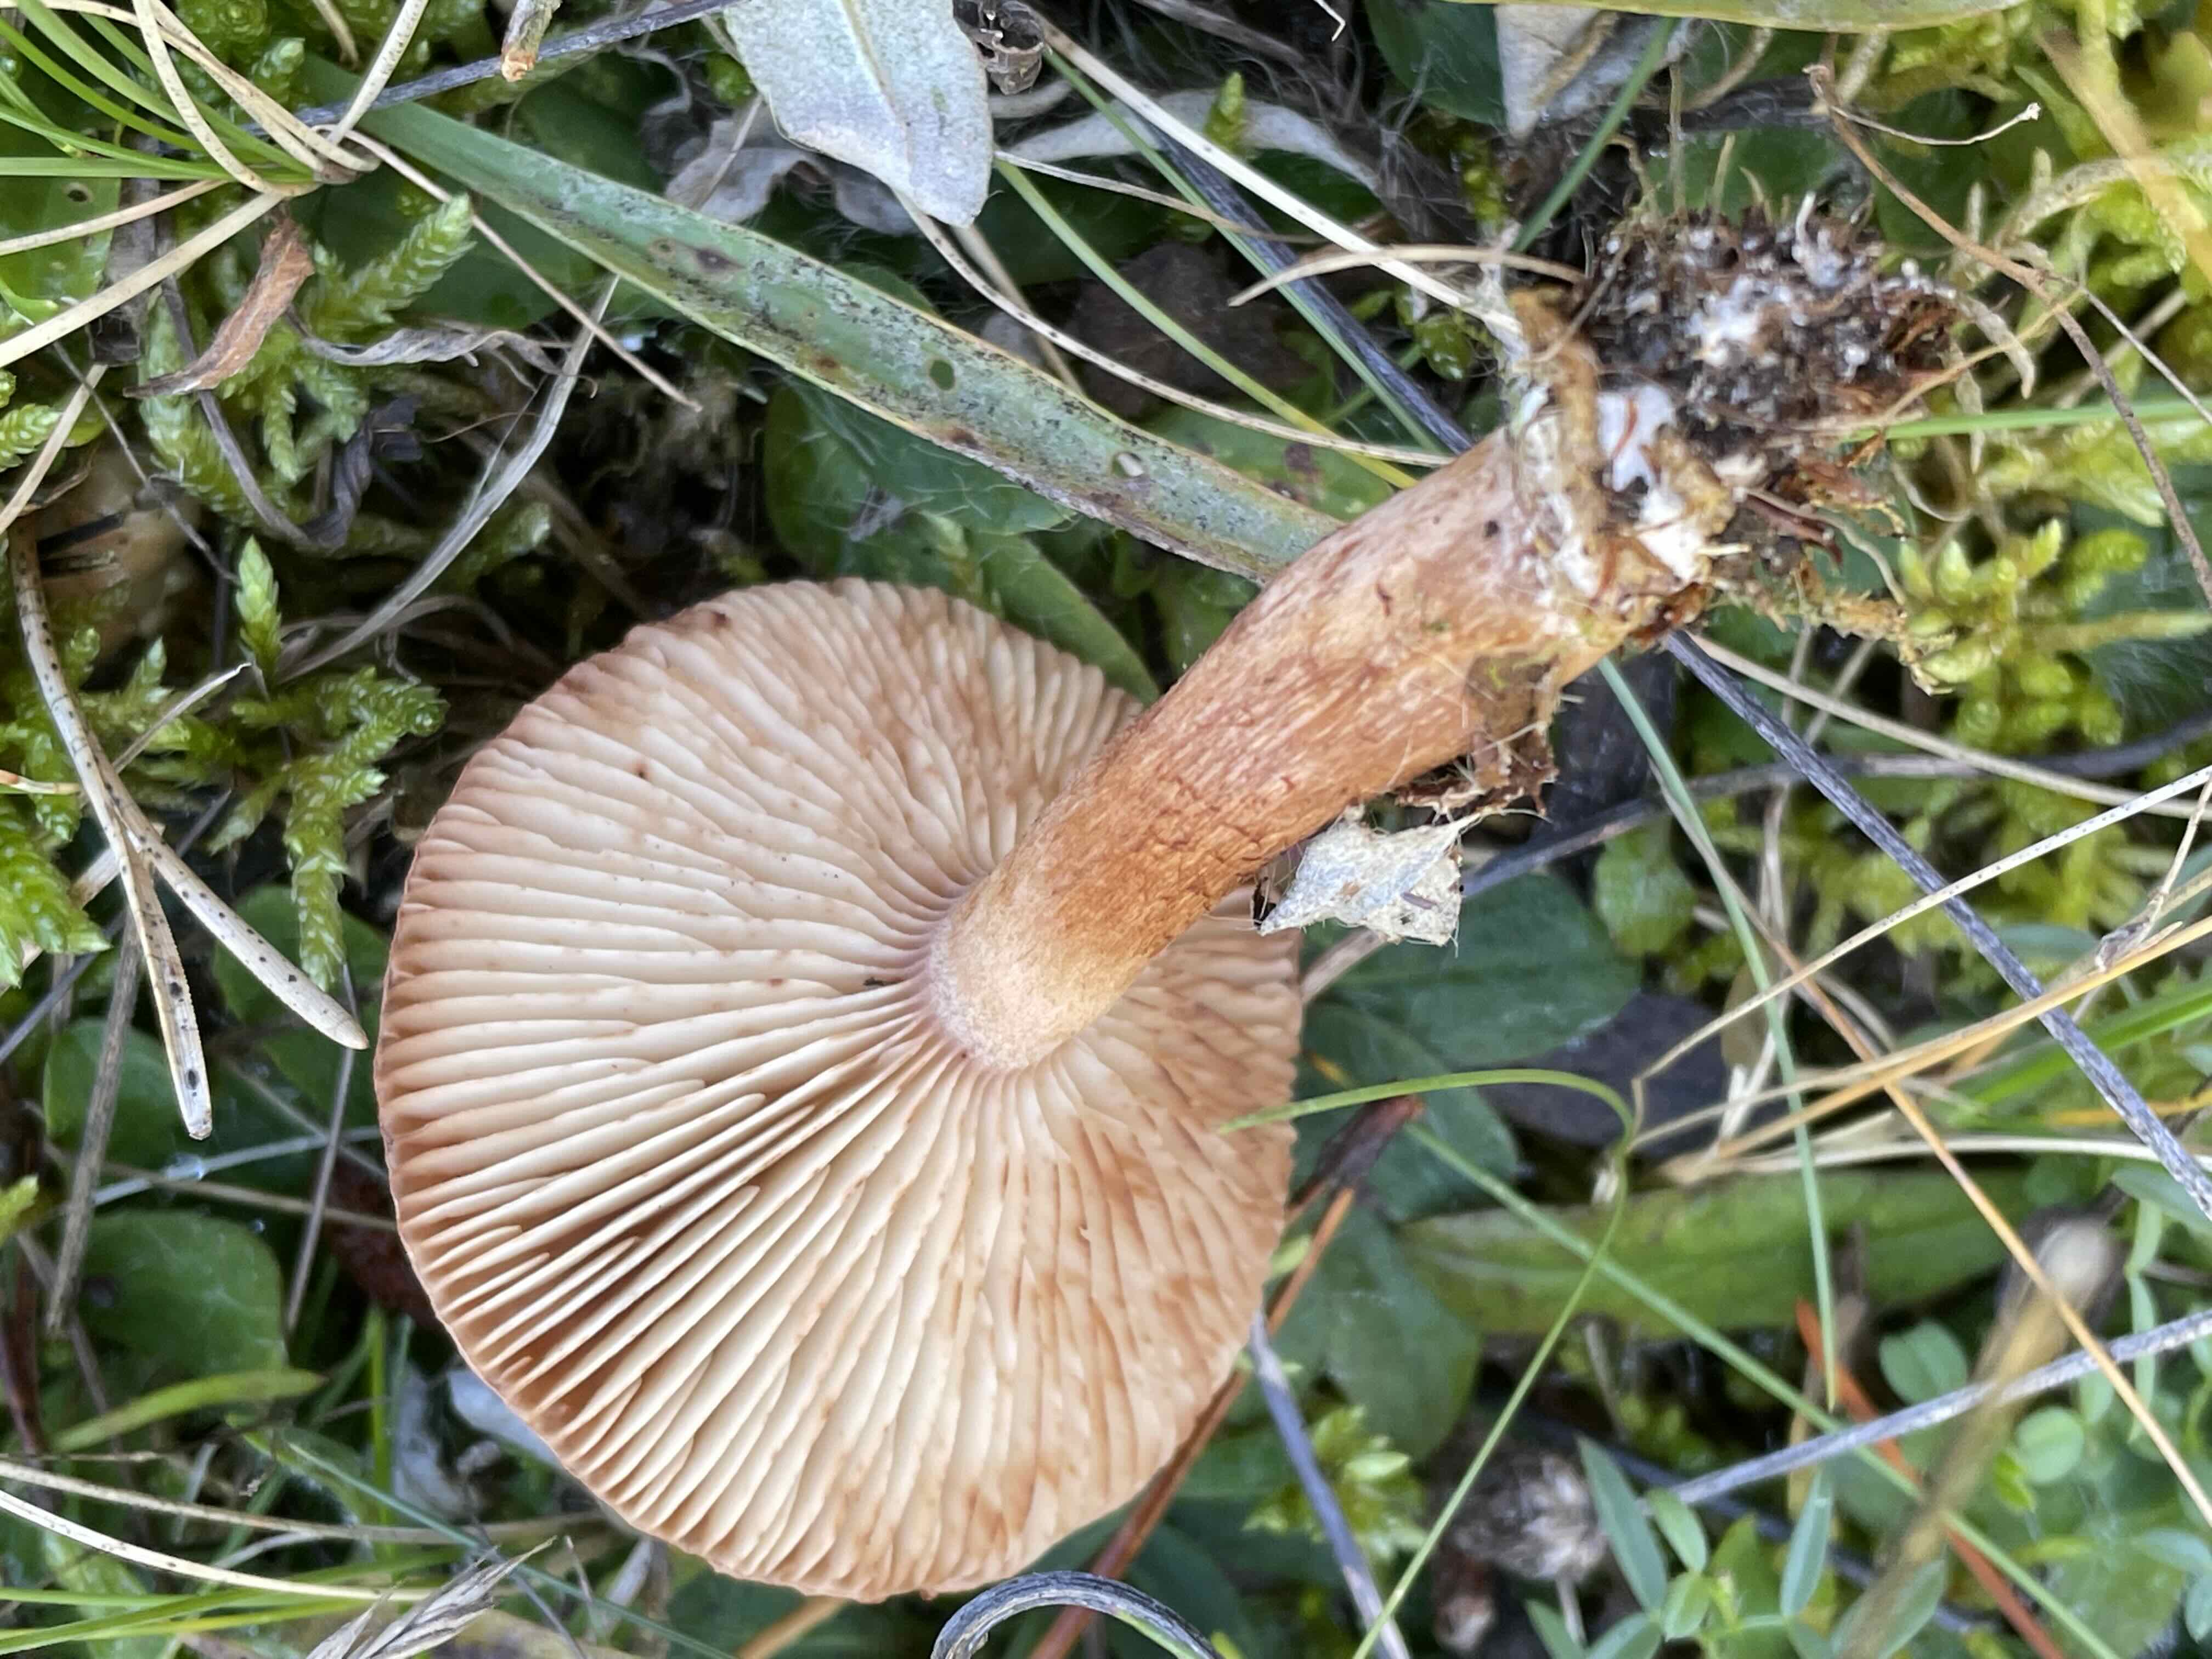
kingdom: Fungi
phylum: Basidiomycota
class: Agaricomycetes
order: Agaricales
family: Tricholomataceae
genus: Tricholoma
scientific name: Tricholoma vaccinum
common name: ko-ridderhat
